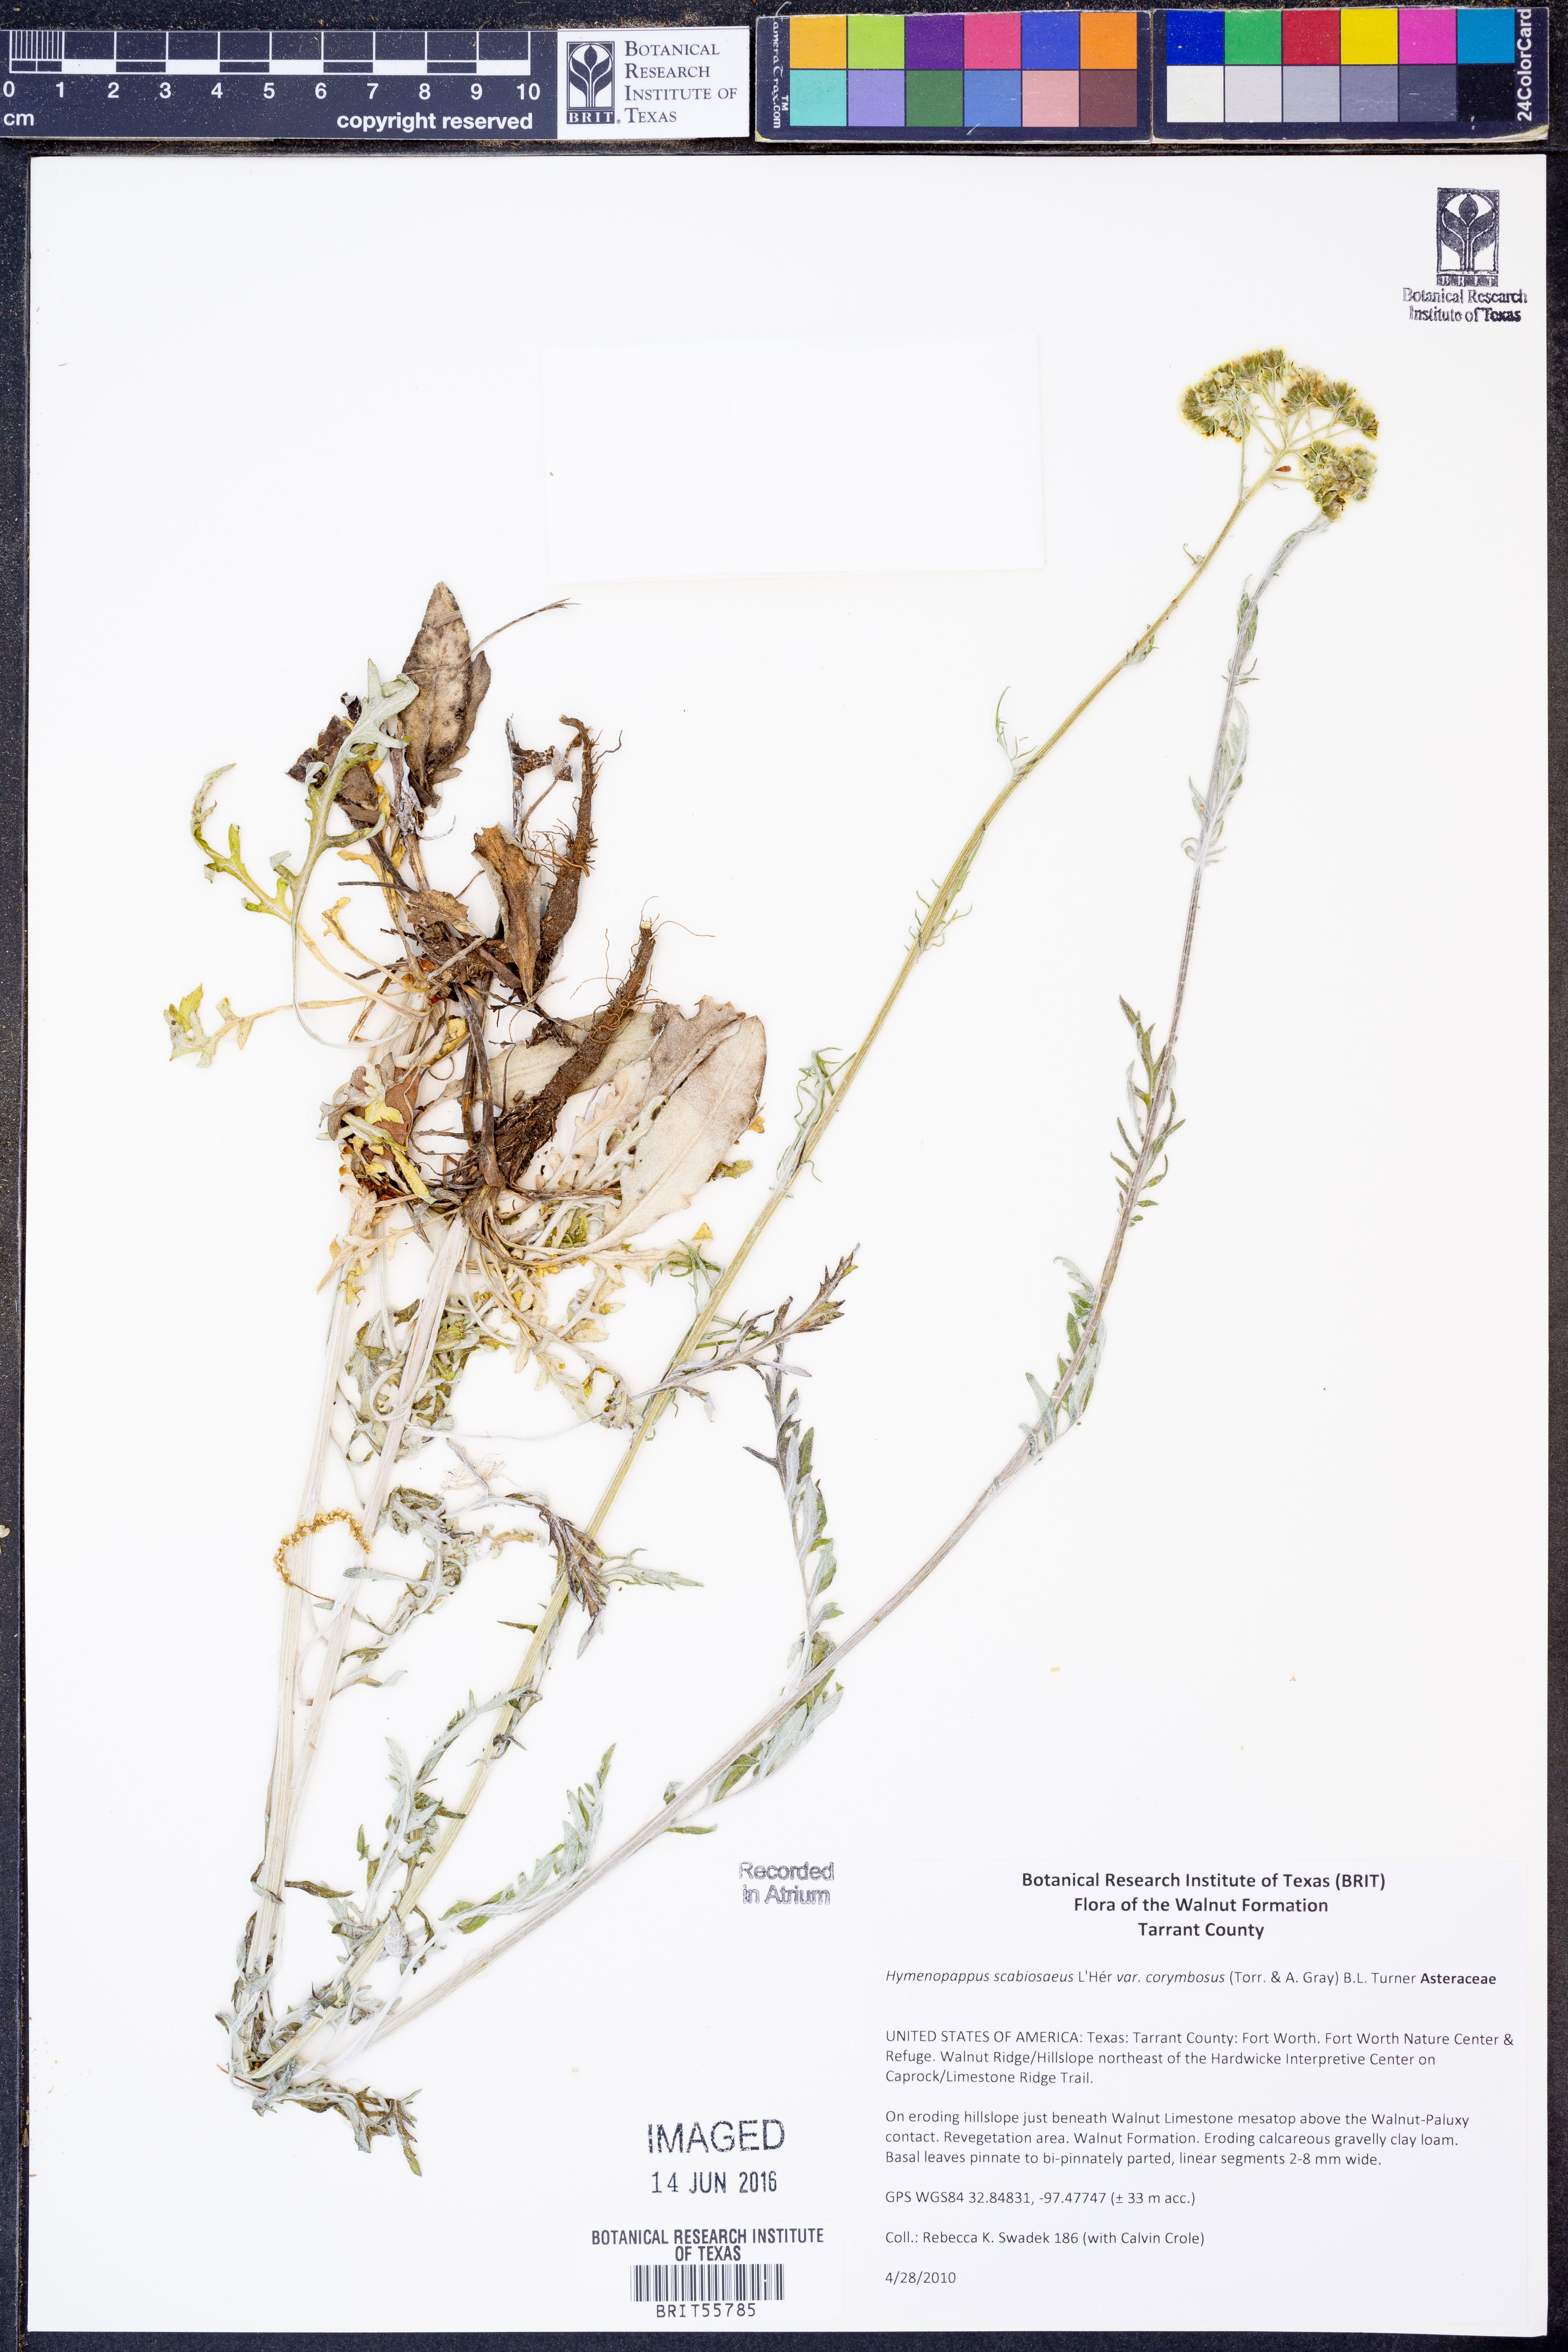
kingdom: Plantae
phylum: Tracheophyta
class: Magnoliopsida
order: Asterales
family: Asteraceae
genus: Hymenopappus
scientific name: Hymenopappus scabiosaeus
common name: Carolina woollywhite
